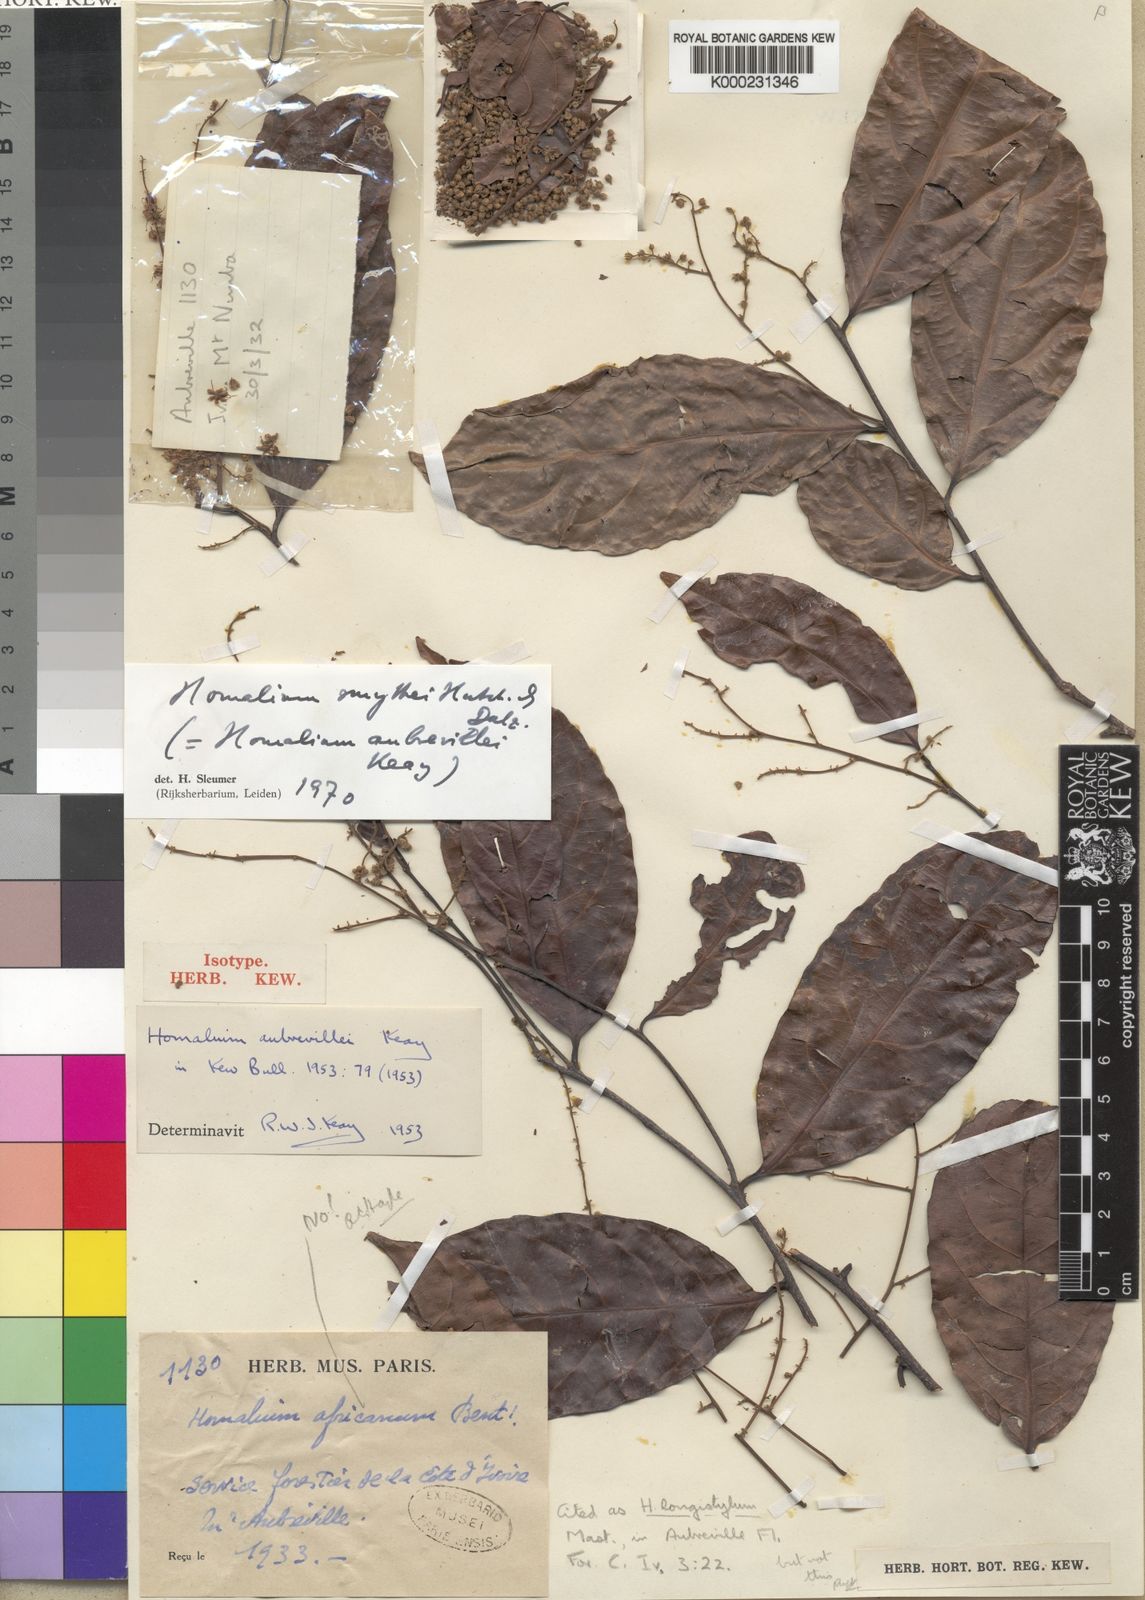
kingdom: Plantae
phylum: Tracheophyta
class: Magnoliopsida
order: Malpighiales
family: Salicaceae
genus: Homalium
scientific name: Homalium smythei
